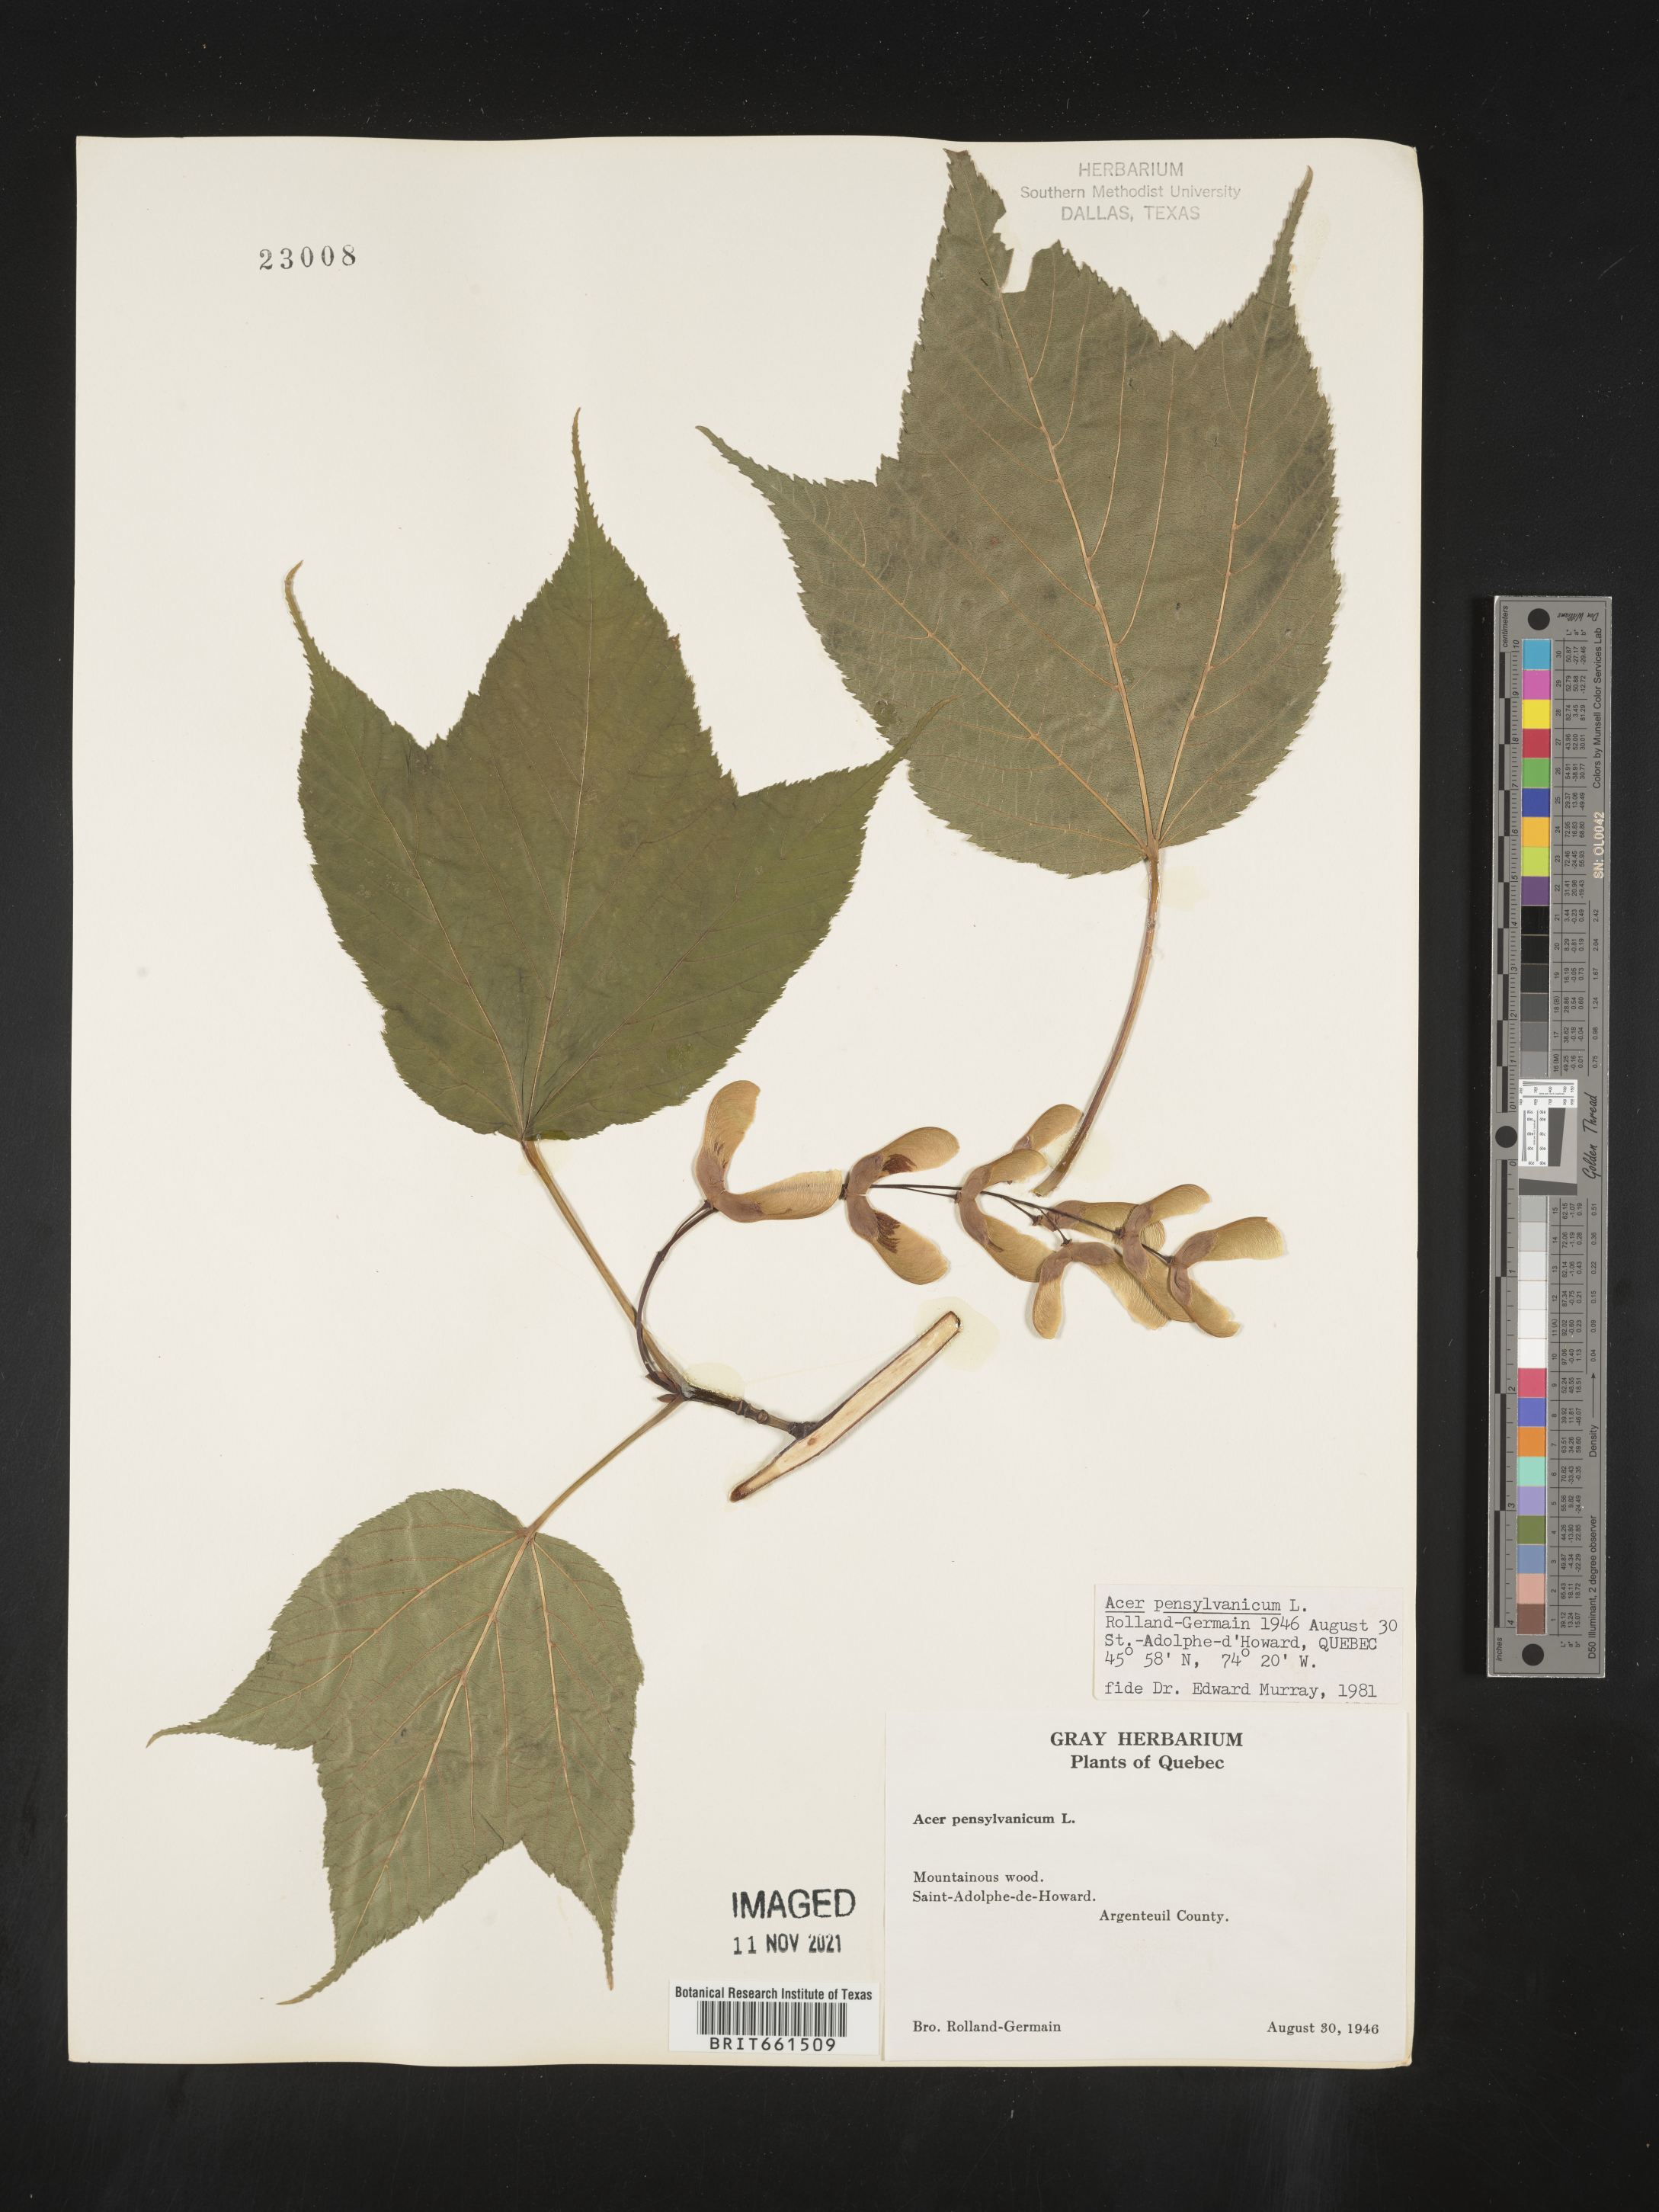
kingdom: Plantae
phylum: Tracheophyta
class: Magnoliopsida
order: Sapindales
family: Sapindaceae
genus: Acer
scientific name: Acer pensylvanicum
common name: Moosewood
